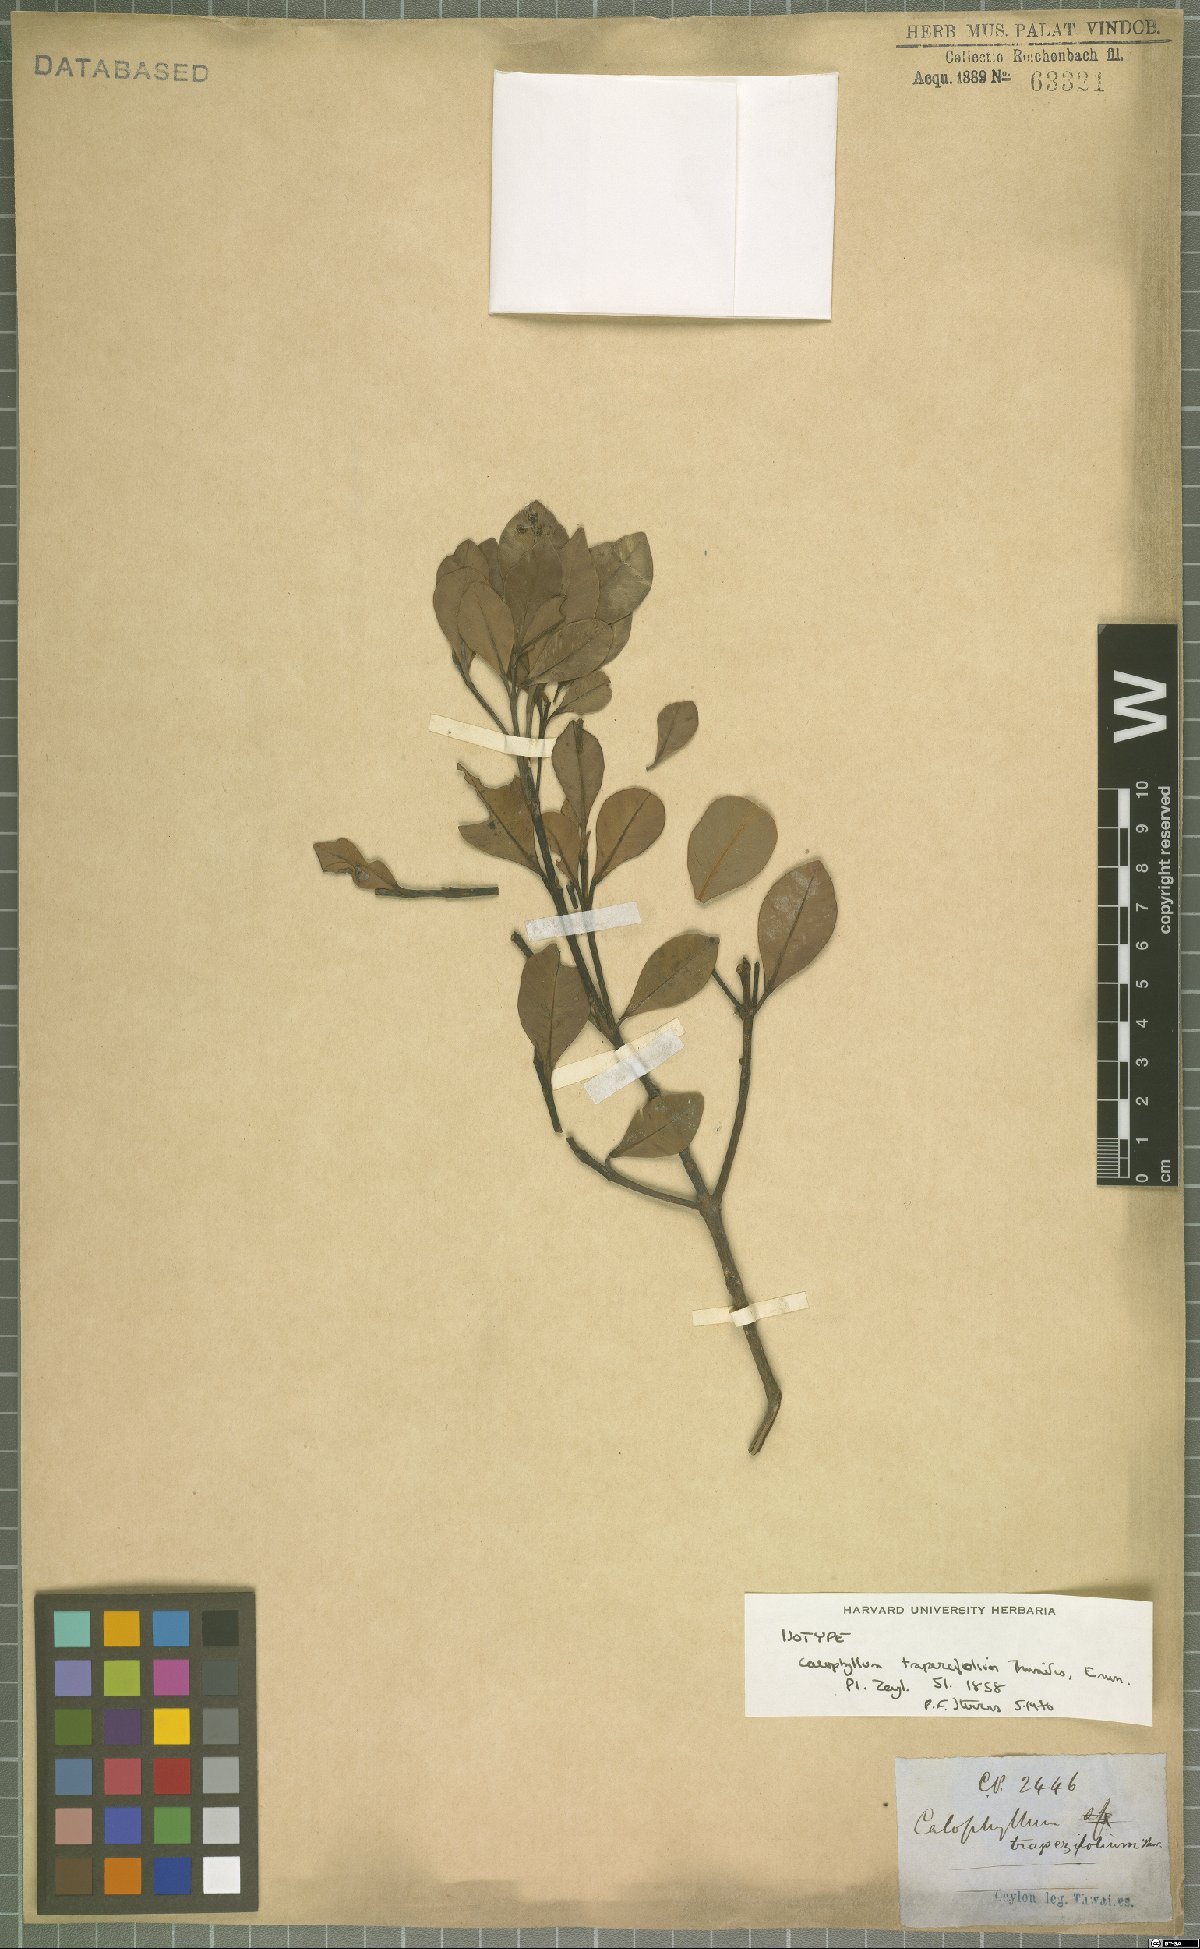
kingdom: Plantae
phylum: Tracheophyta
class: Magnoliopsida
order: Malpighiales
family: Calophyllaceae
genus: Calophyllum
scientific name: Calophyllum trapezifolium
